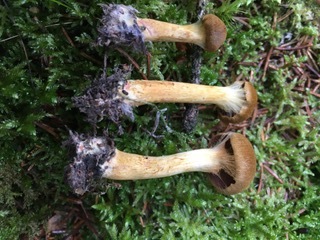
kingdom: Fungi
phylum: Basidiomycota
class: Agaricomycetes
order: Agaricales
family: Cortinariaceae
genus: Cortinarius
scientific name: Cortinarius
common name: cinnoberbladet slørhat
